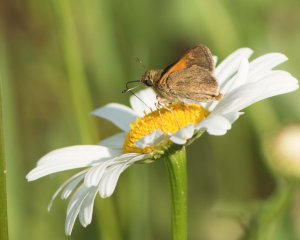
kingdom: Animalia
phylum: Arthropoda
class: Insecta
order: Lepidoptera
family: Hesperiidae
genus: Polites
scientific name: Polites themistocles
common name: Tawny-edged Skipper
